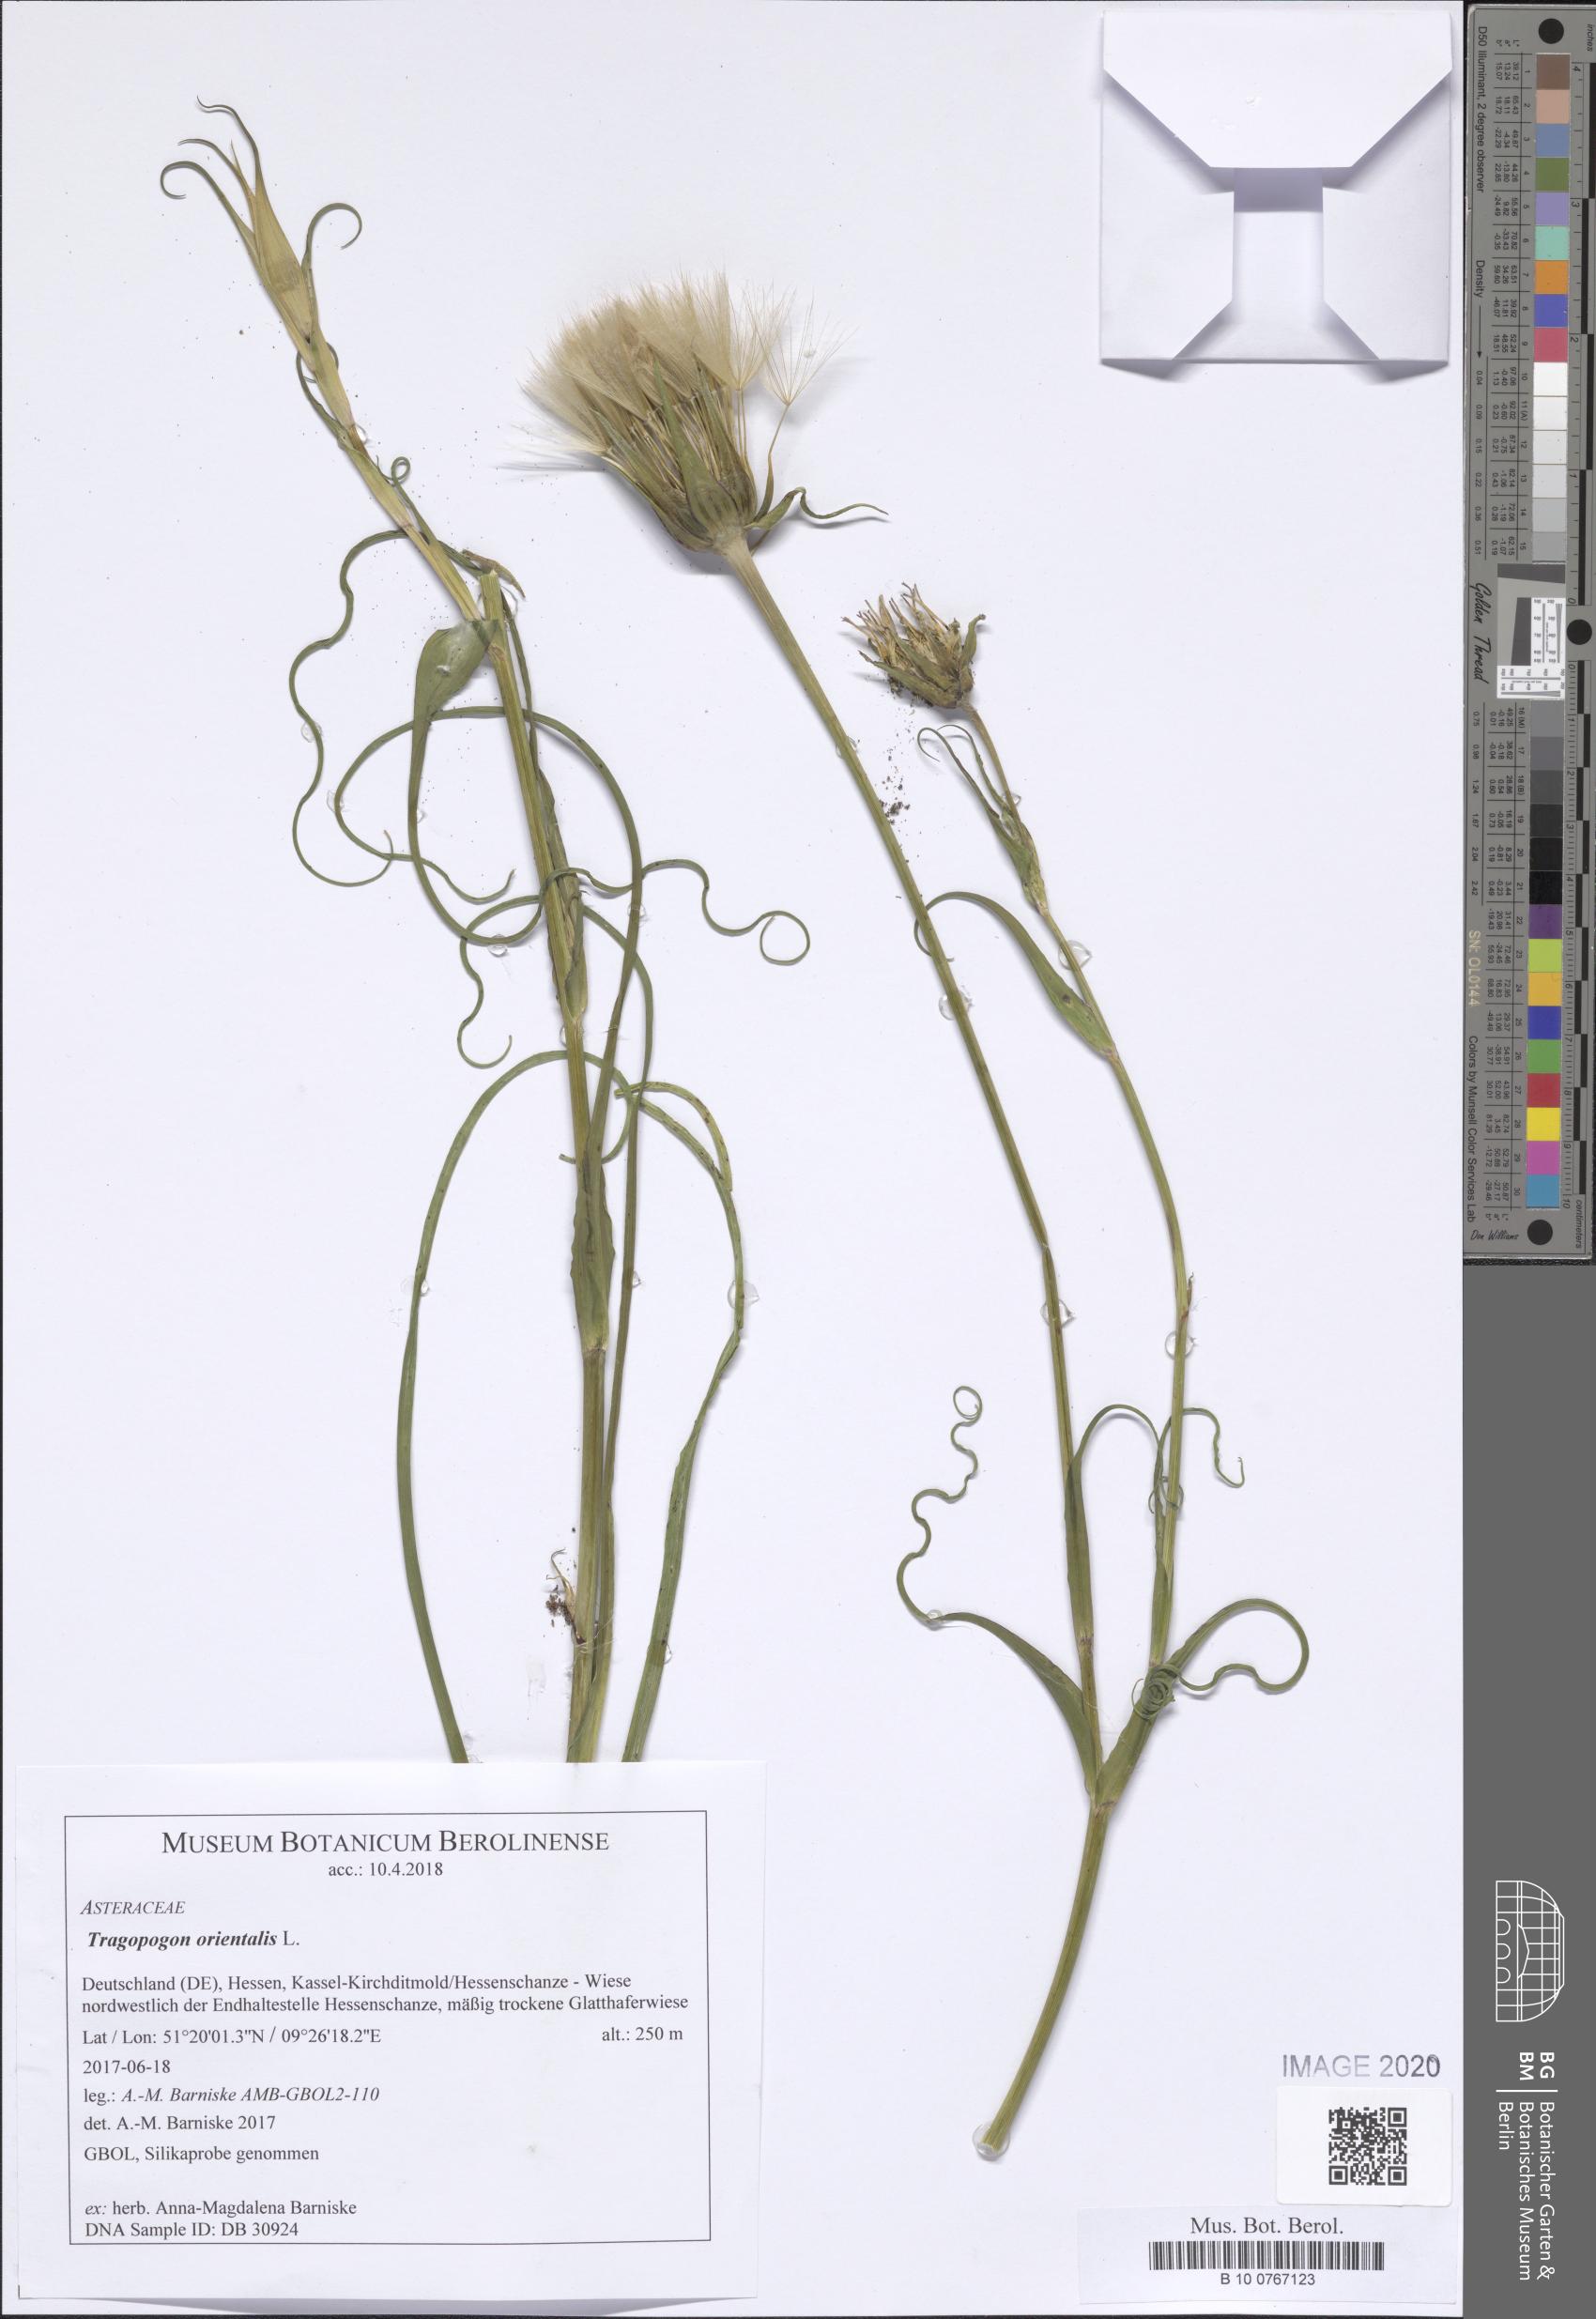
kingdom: Plantae
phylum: Tracheophyta
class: Magnoliopsida
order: Asterales
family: Asteraceae
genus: Tragopogon
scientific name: Tragopogon orientalis
